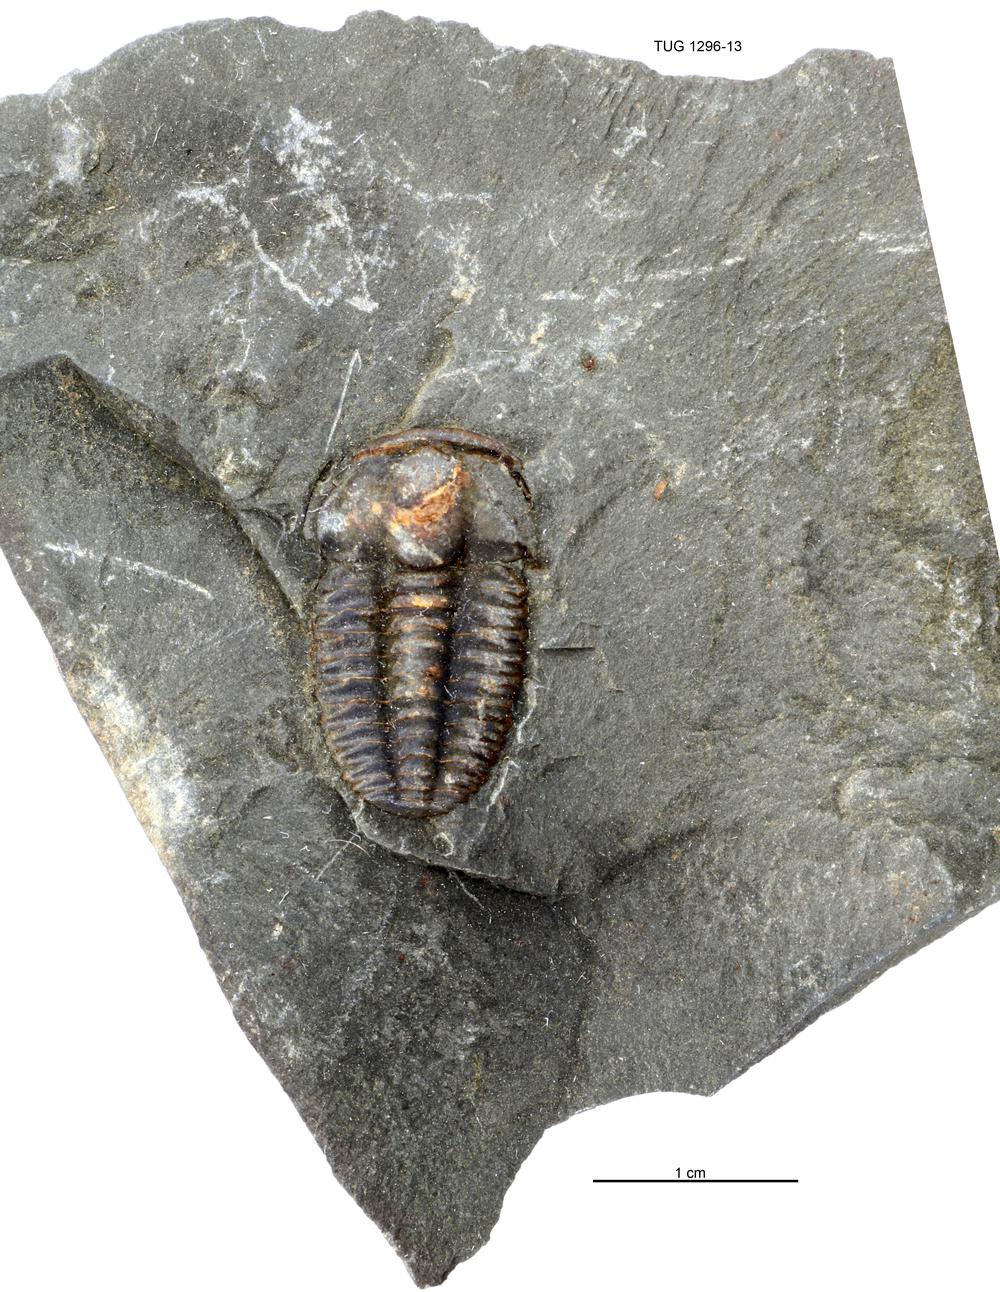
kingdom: Animalia
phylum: Arthropoda
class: Trilobita
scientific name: Trilobita
